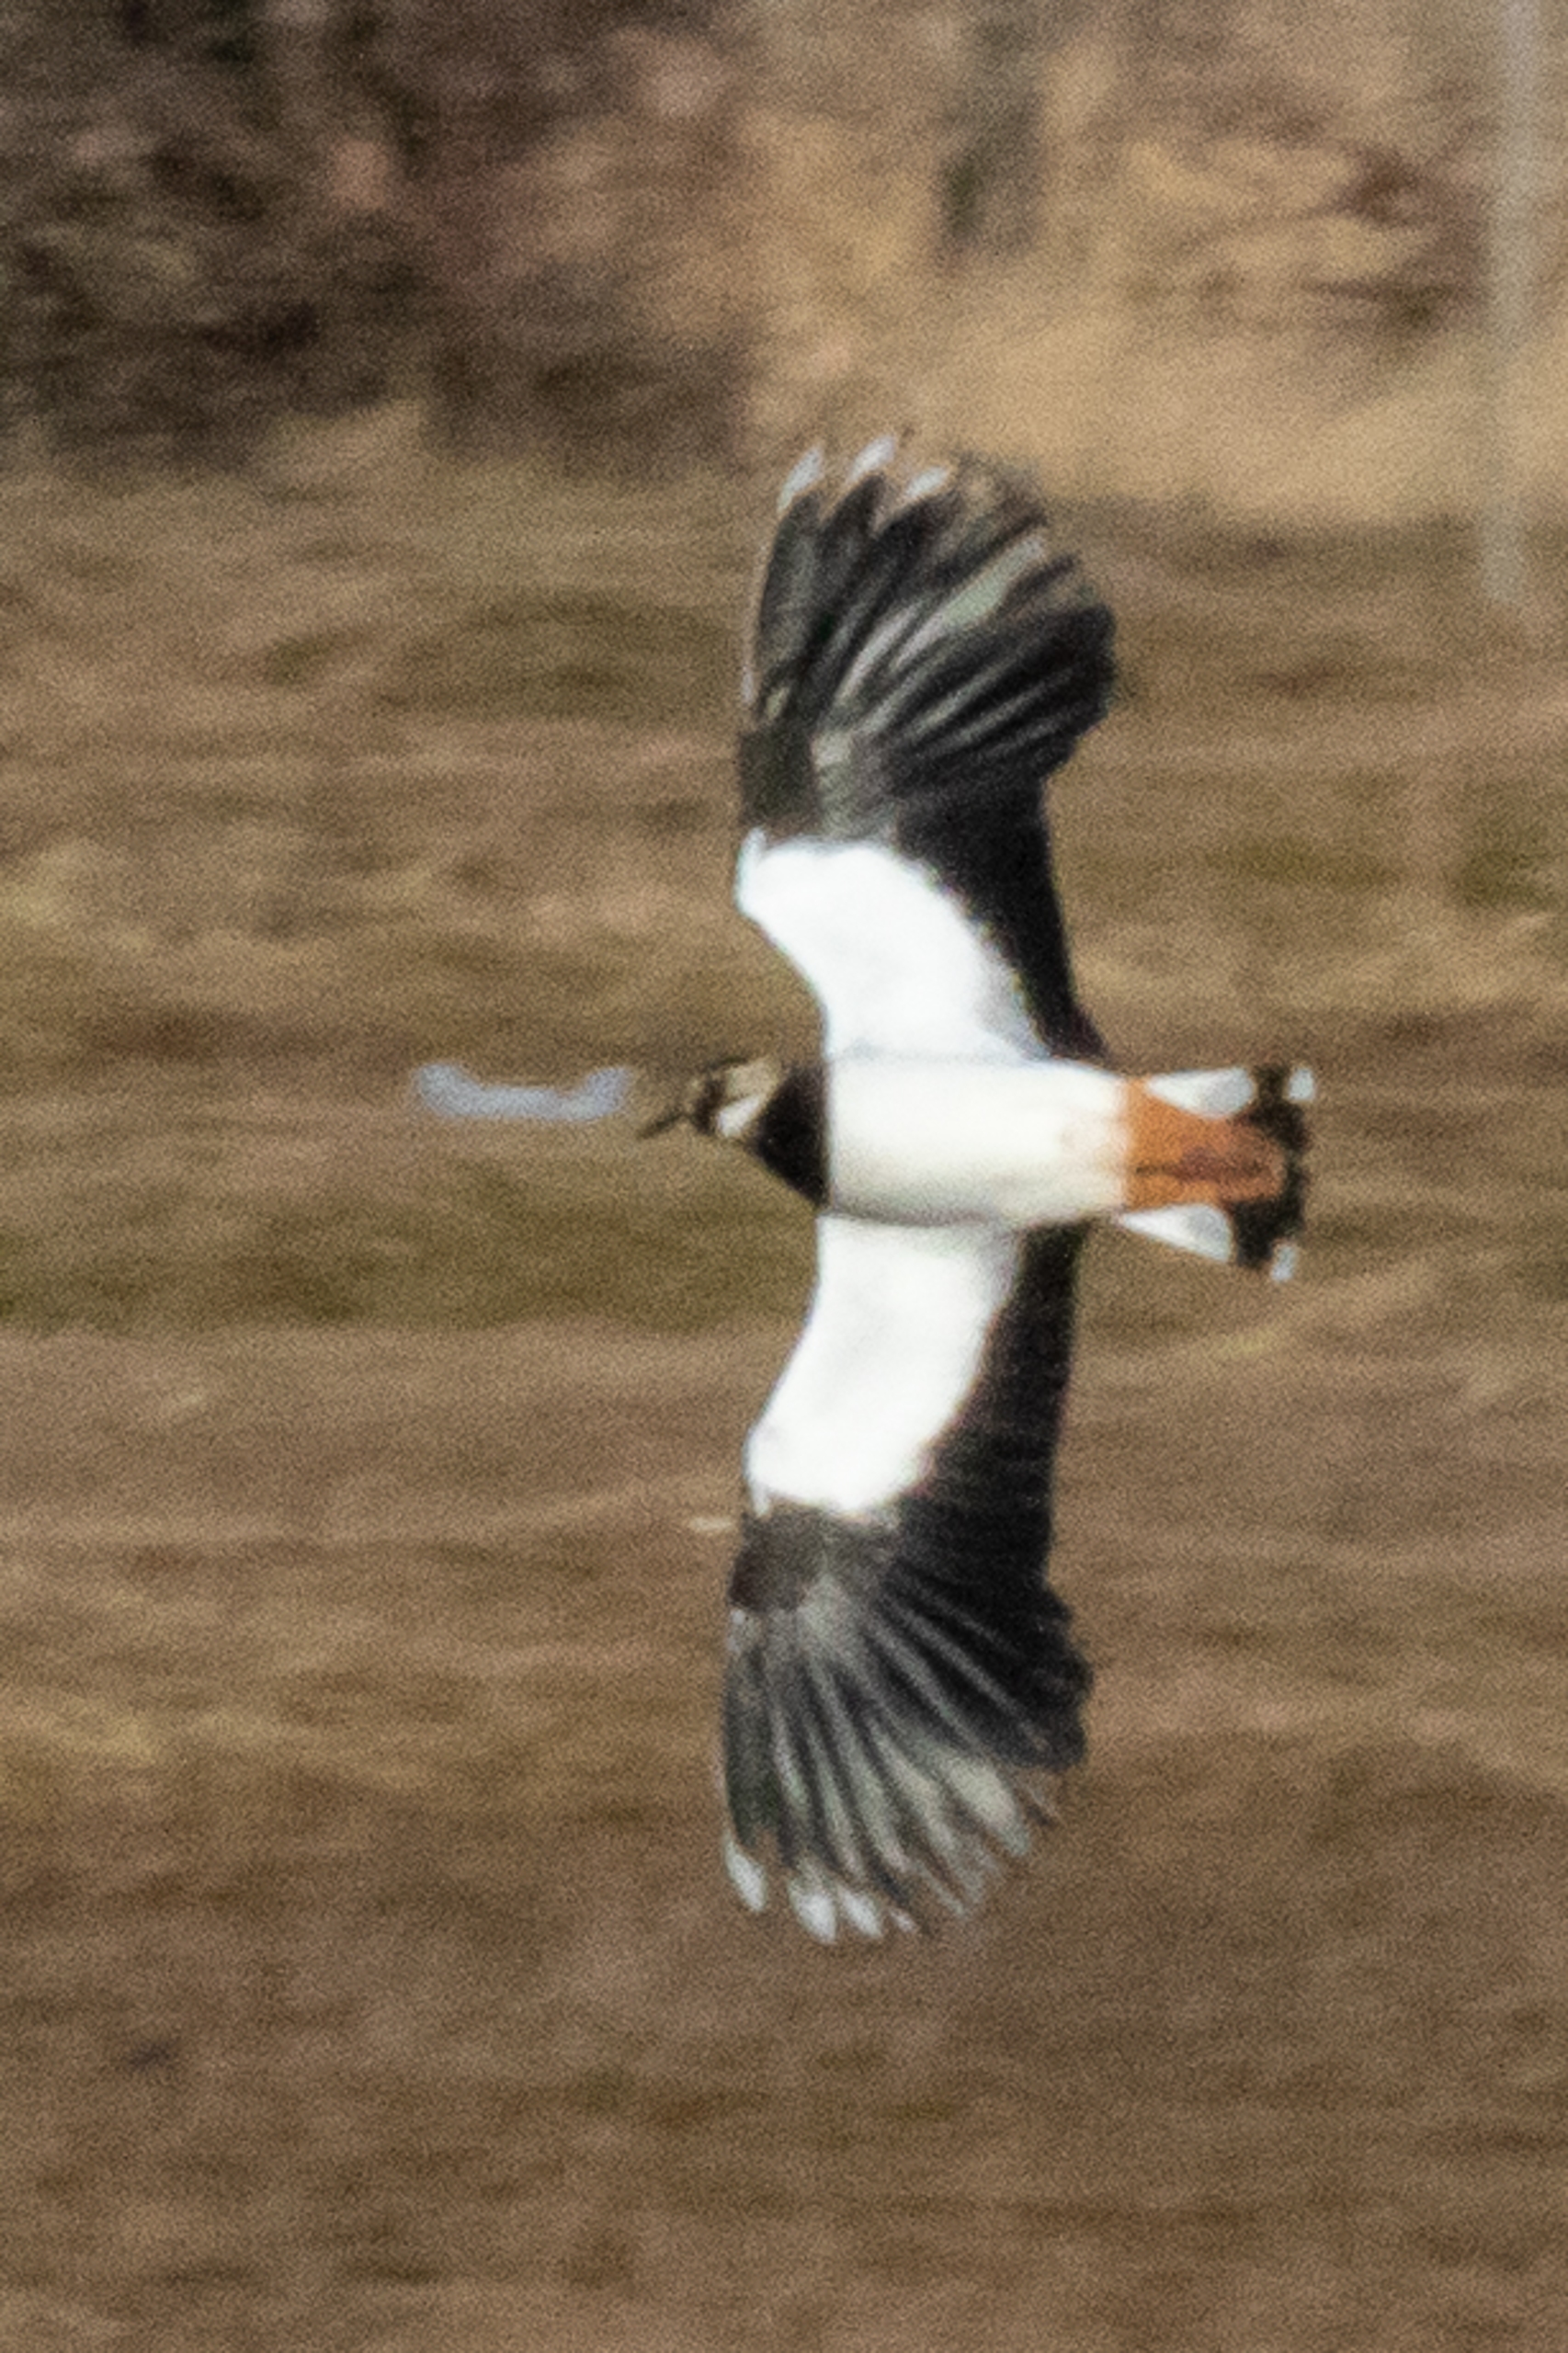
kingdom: Animalia
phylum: Chordata
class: Aves
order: Charadriiformes
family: Charadriidae
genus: Vanellus
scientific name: Vanellus vanellus
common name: Vibe
